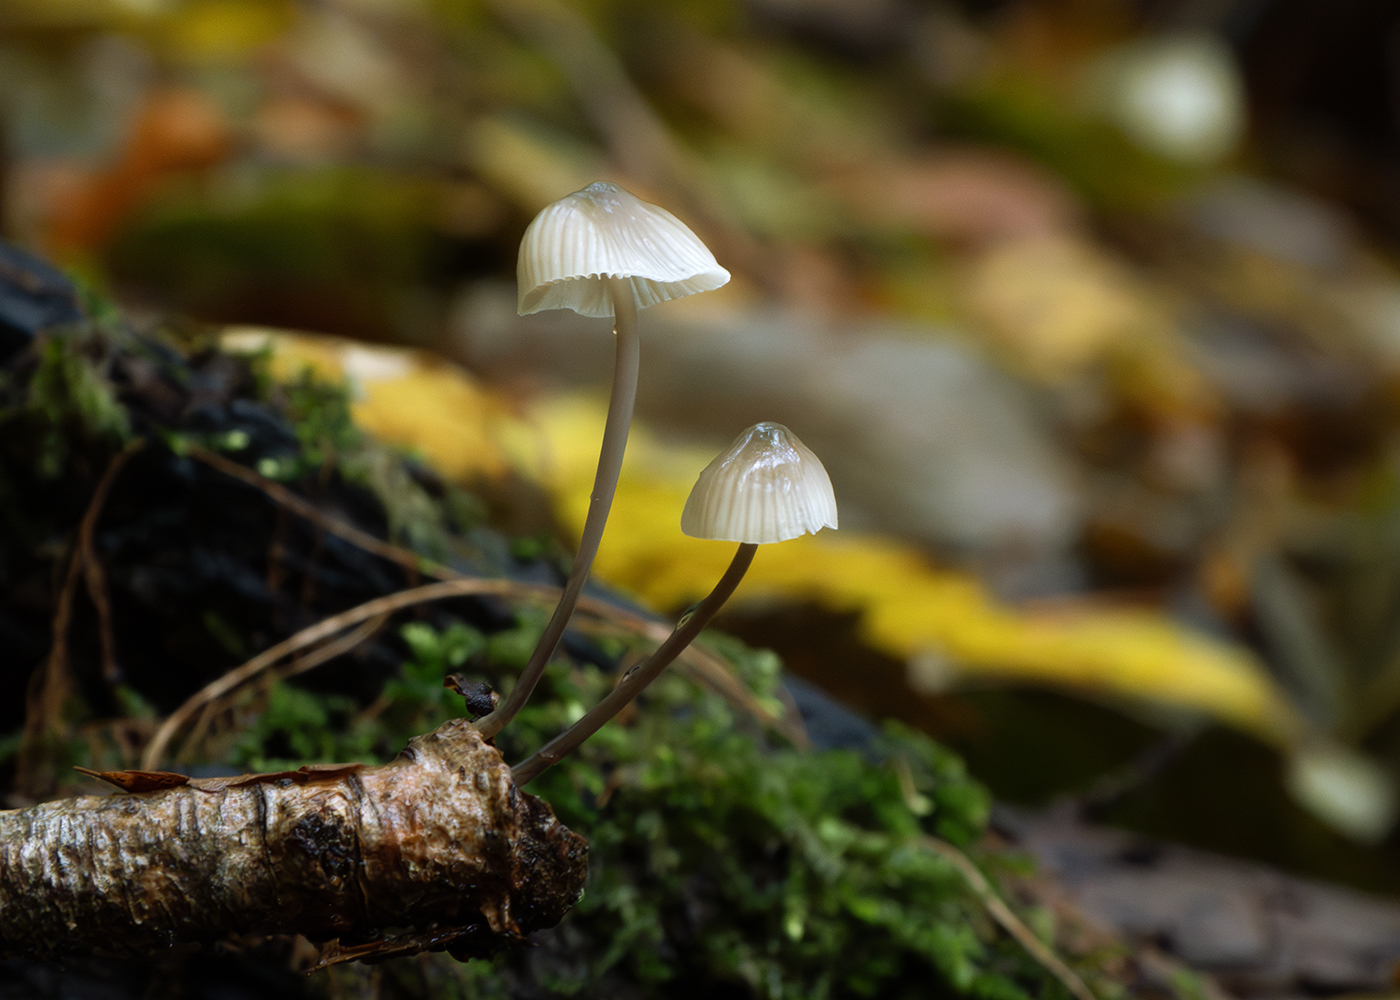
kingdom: Fungi
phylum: Basidiomycota
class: Agaricomycetes
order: Agaricales
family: Mycenaceae
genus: Mycena
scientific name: Mycena
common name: huesvamp
